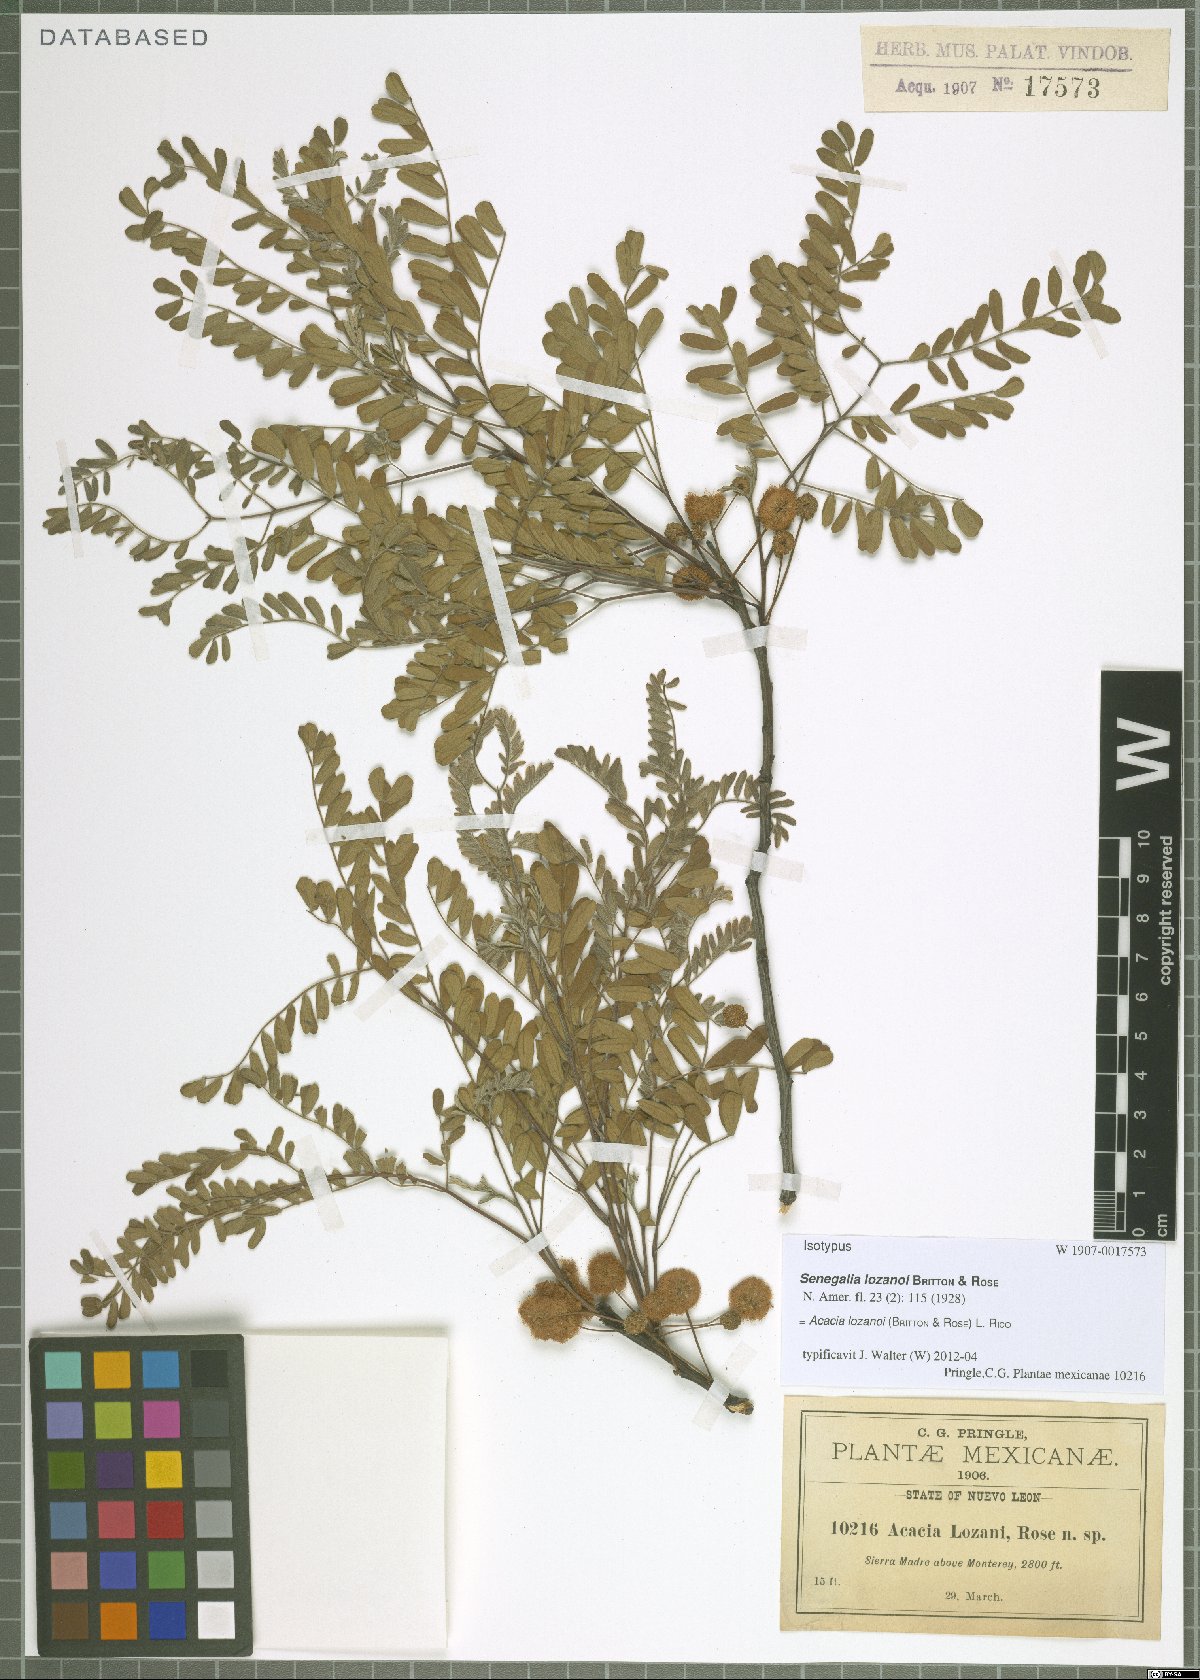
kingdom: Plantae
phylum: Tracheophyta
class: Magnoliopsida
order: Fabales
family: Fabaceae
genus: Senegalia
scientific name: Senegalia roemeriana
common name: Roemer's acacia
